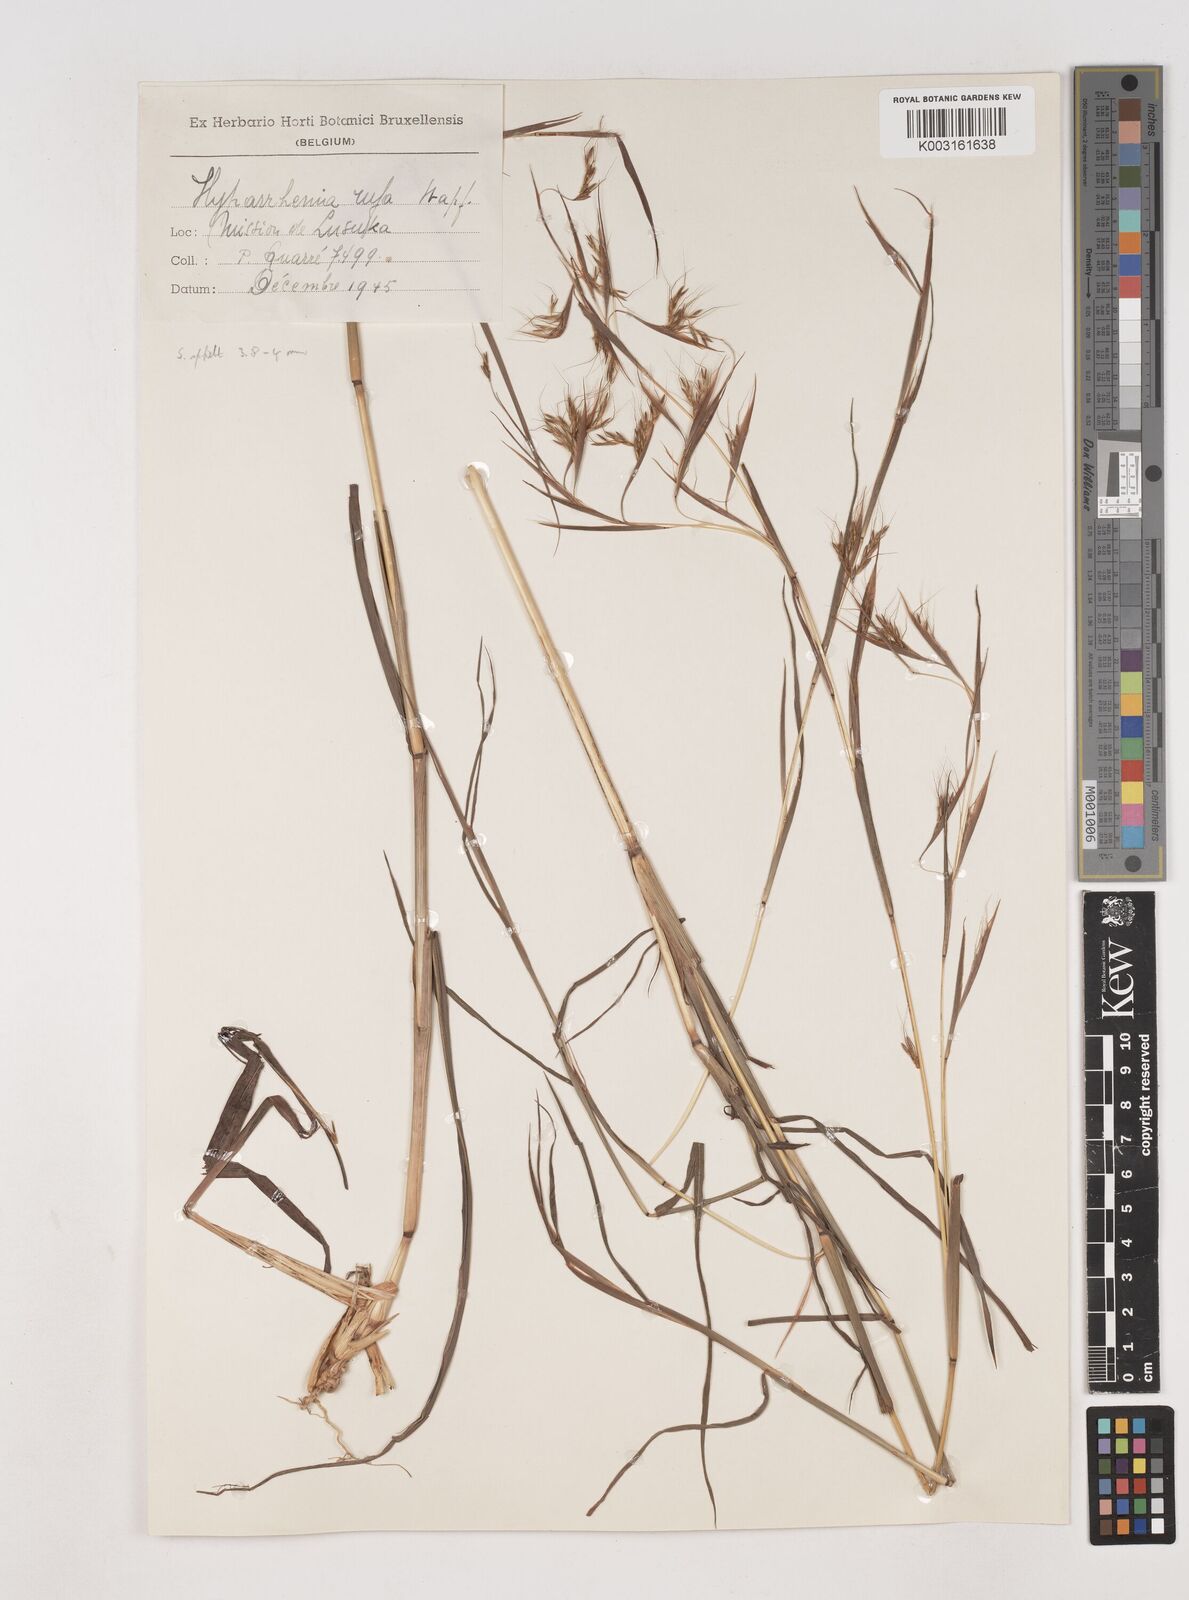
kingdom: Plantae
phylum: Tracheophyta
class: Liliopsida
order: Poales
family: Poaceae
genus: Hyparrhenia
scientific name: Hyparrhenia rufa
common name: Jaraguagrass
